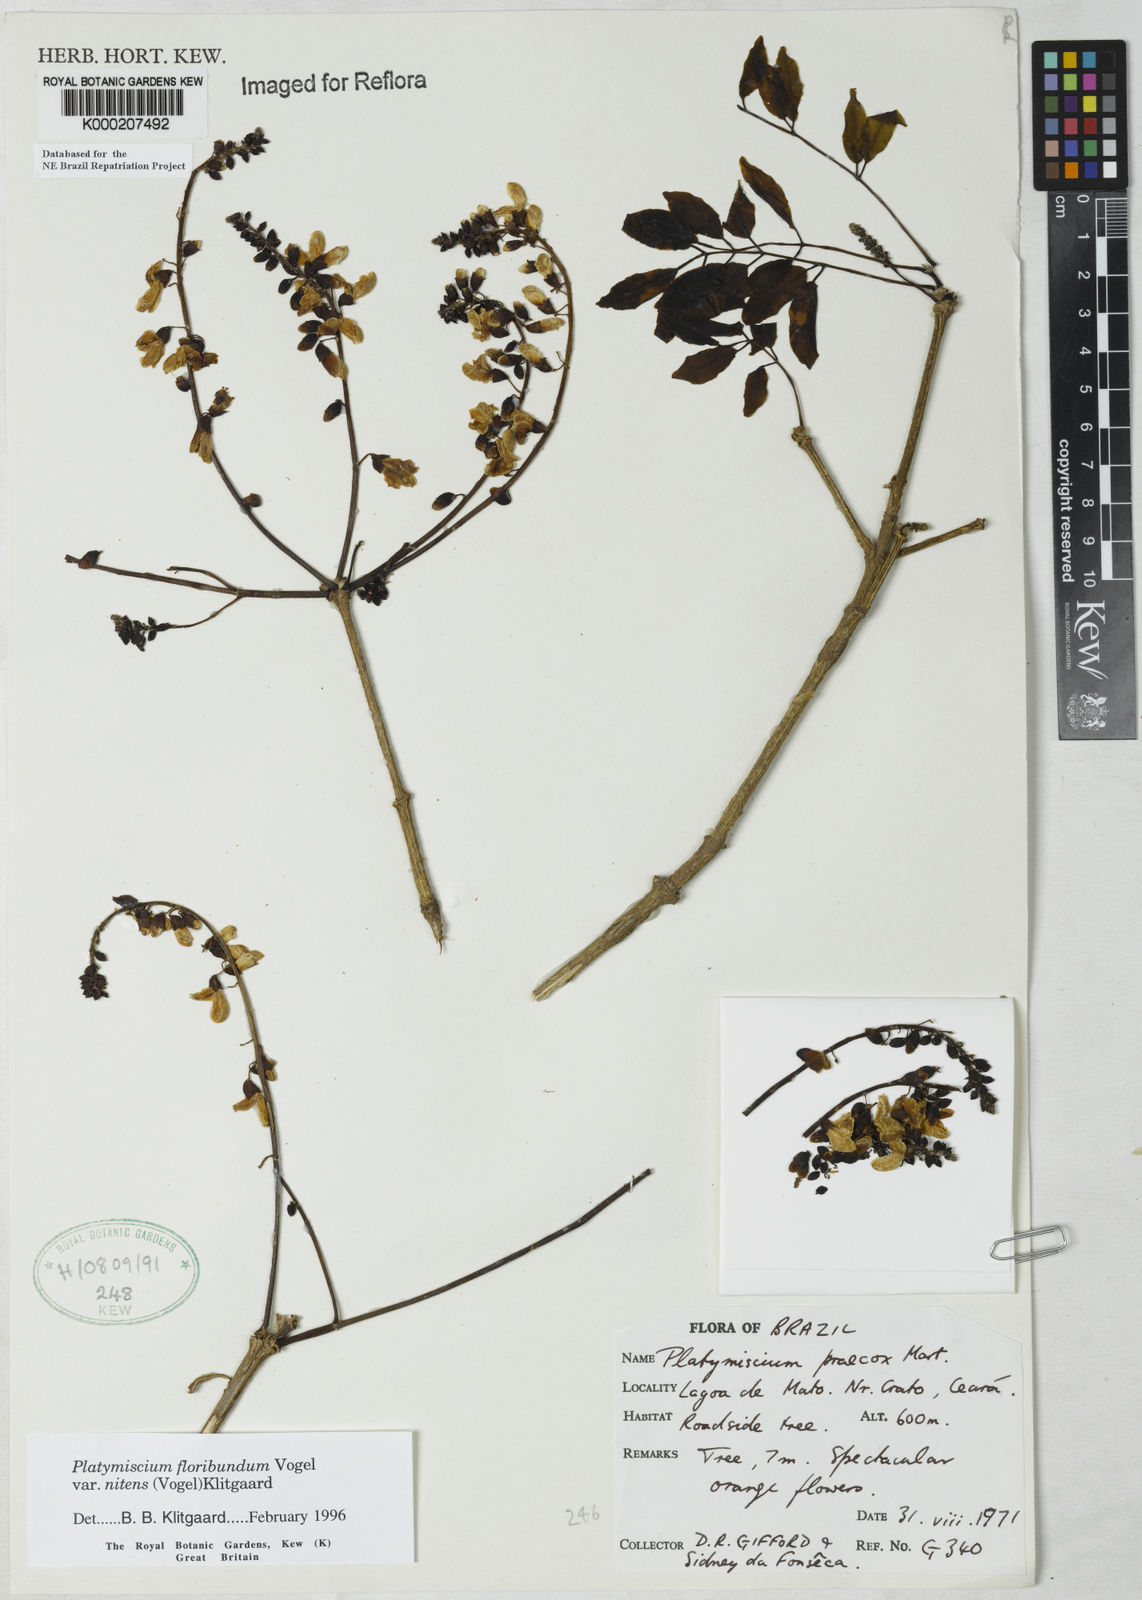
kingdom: Plantae
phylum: Tracheophyta
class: Magnoliopsida
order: Fabales
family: Fabaceae
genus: Platymiscium
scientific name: Platymiscium floribundum
